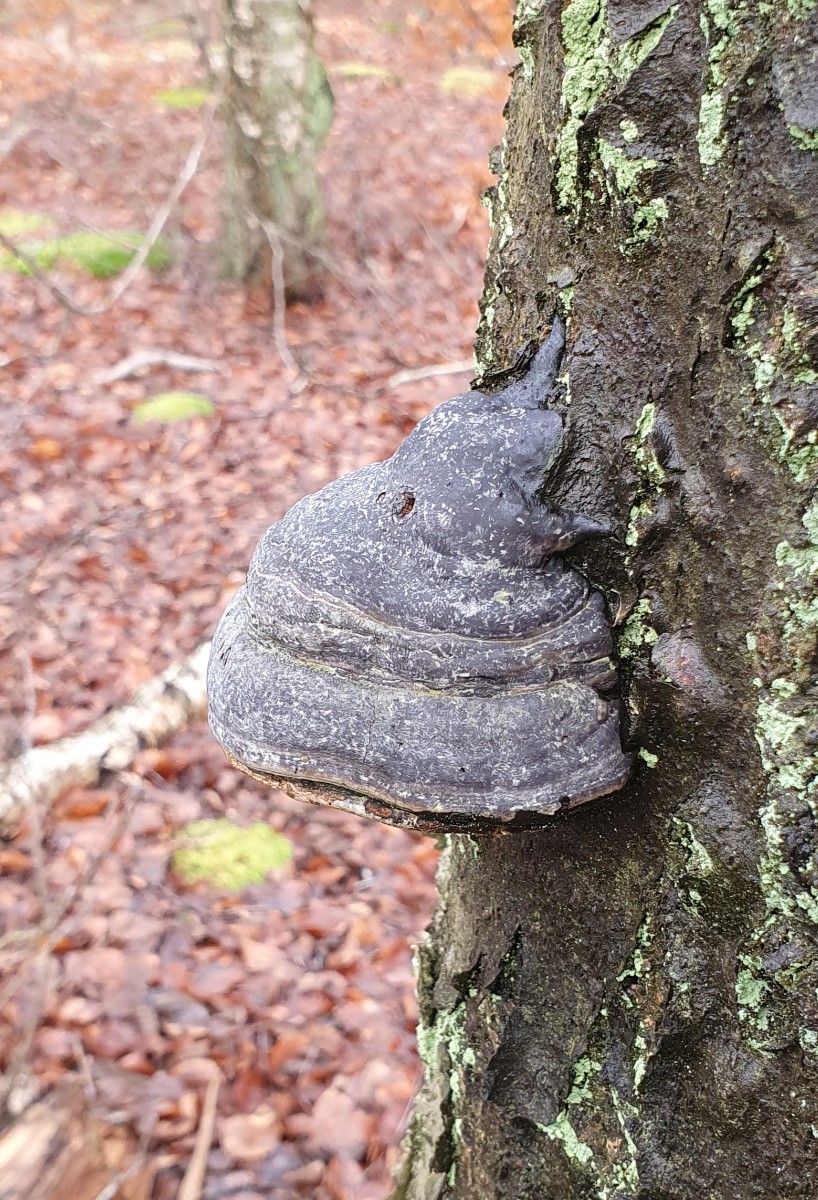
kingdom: Fungi
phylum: Basidiomycota
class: Agaricomycetes
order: Polyporales
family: Polyporaceae
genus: Fomes
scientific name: Fomes fomentarius
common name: tøndersvamp
